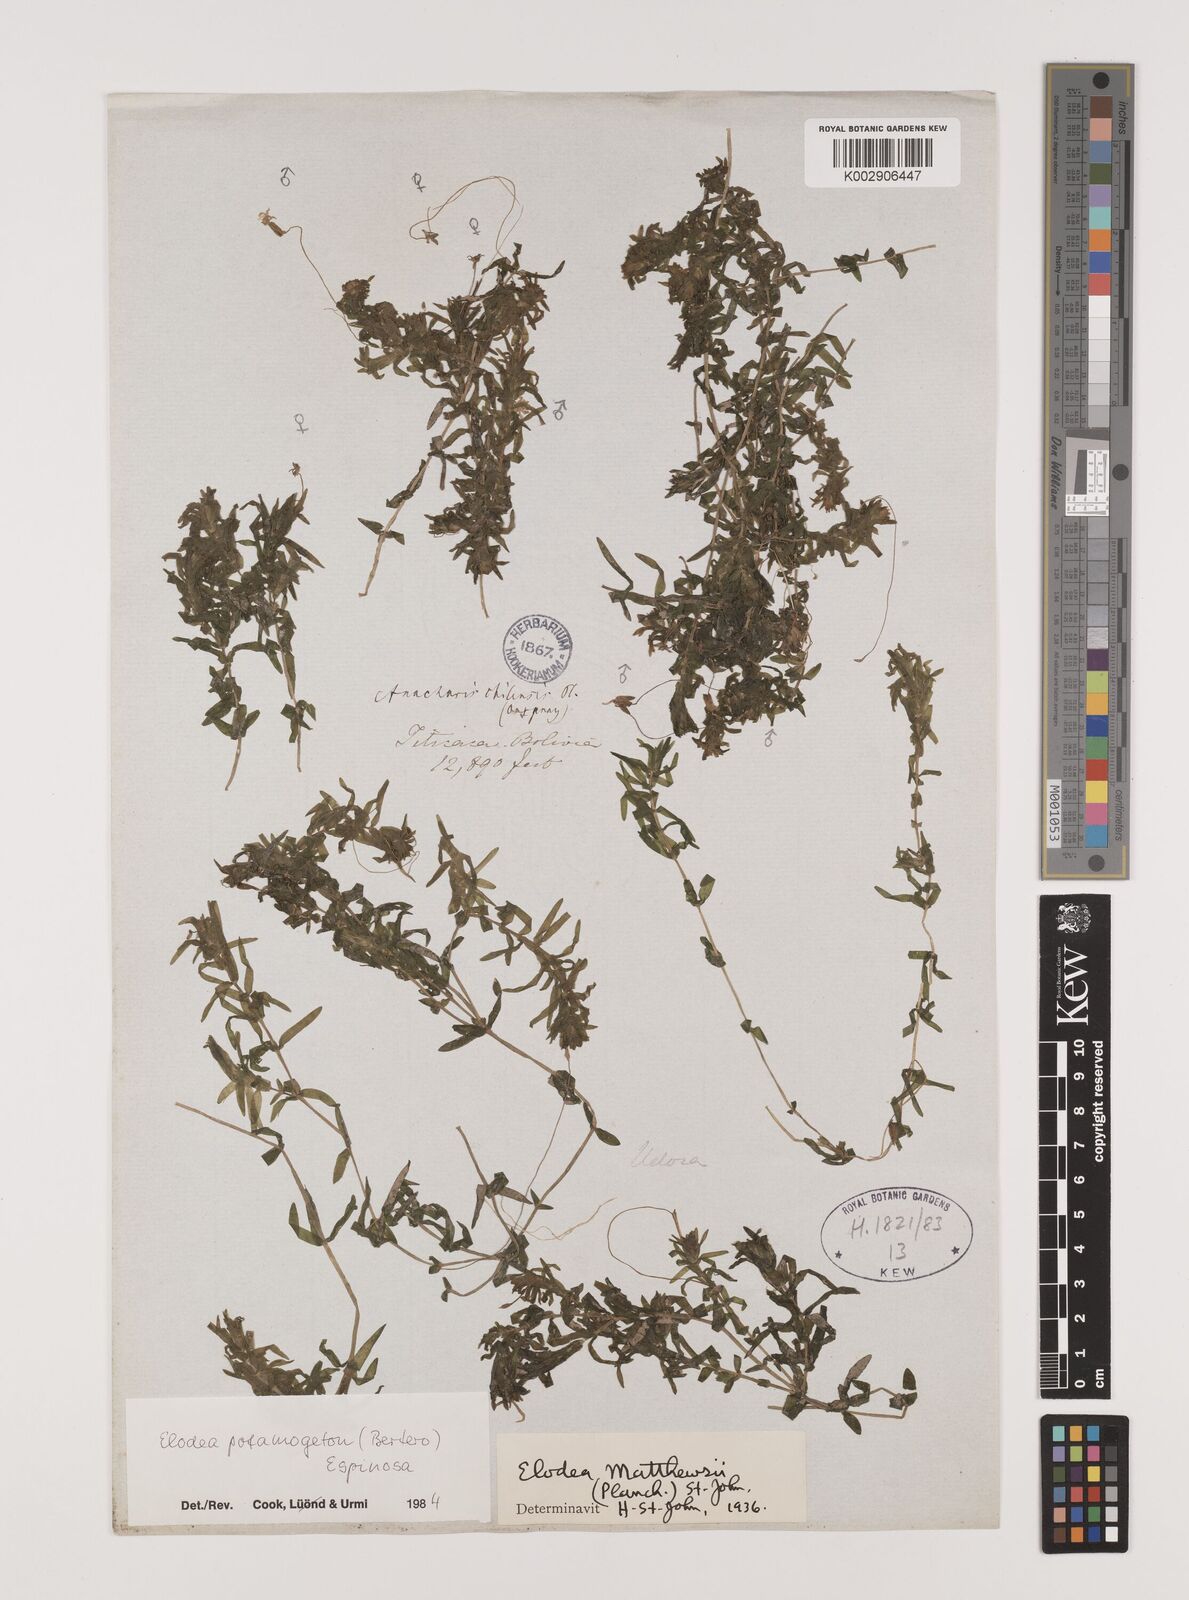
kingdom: Plantae
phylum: Tracheophyta
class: Liliopsida
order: Alismatales
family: Hydrocharitaceae
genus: Elodea
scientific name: Elodea potamogeton
